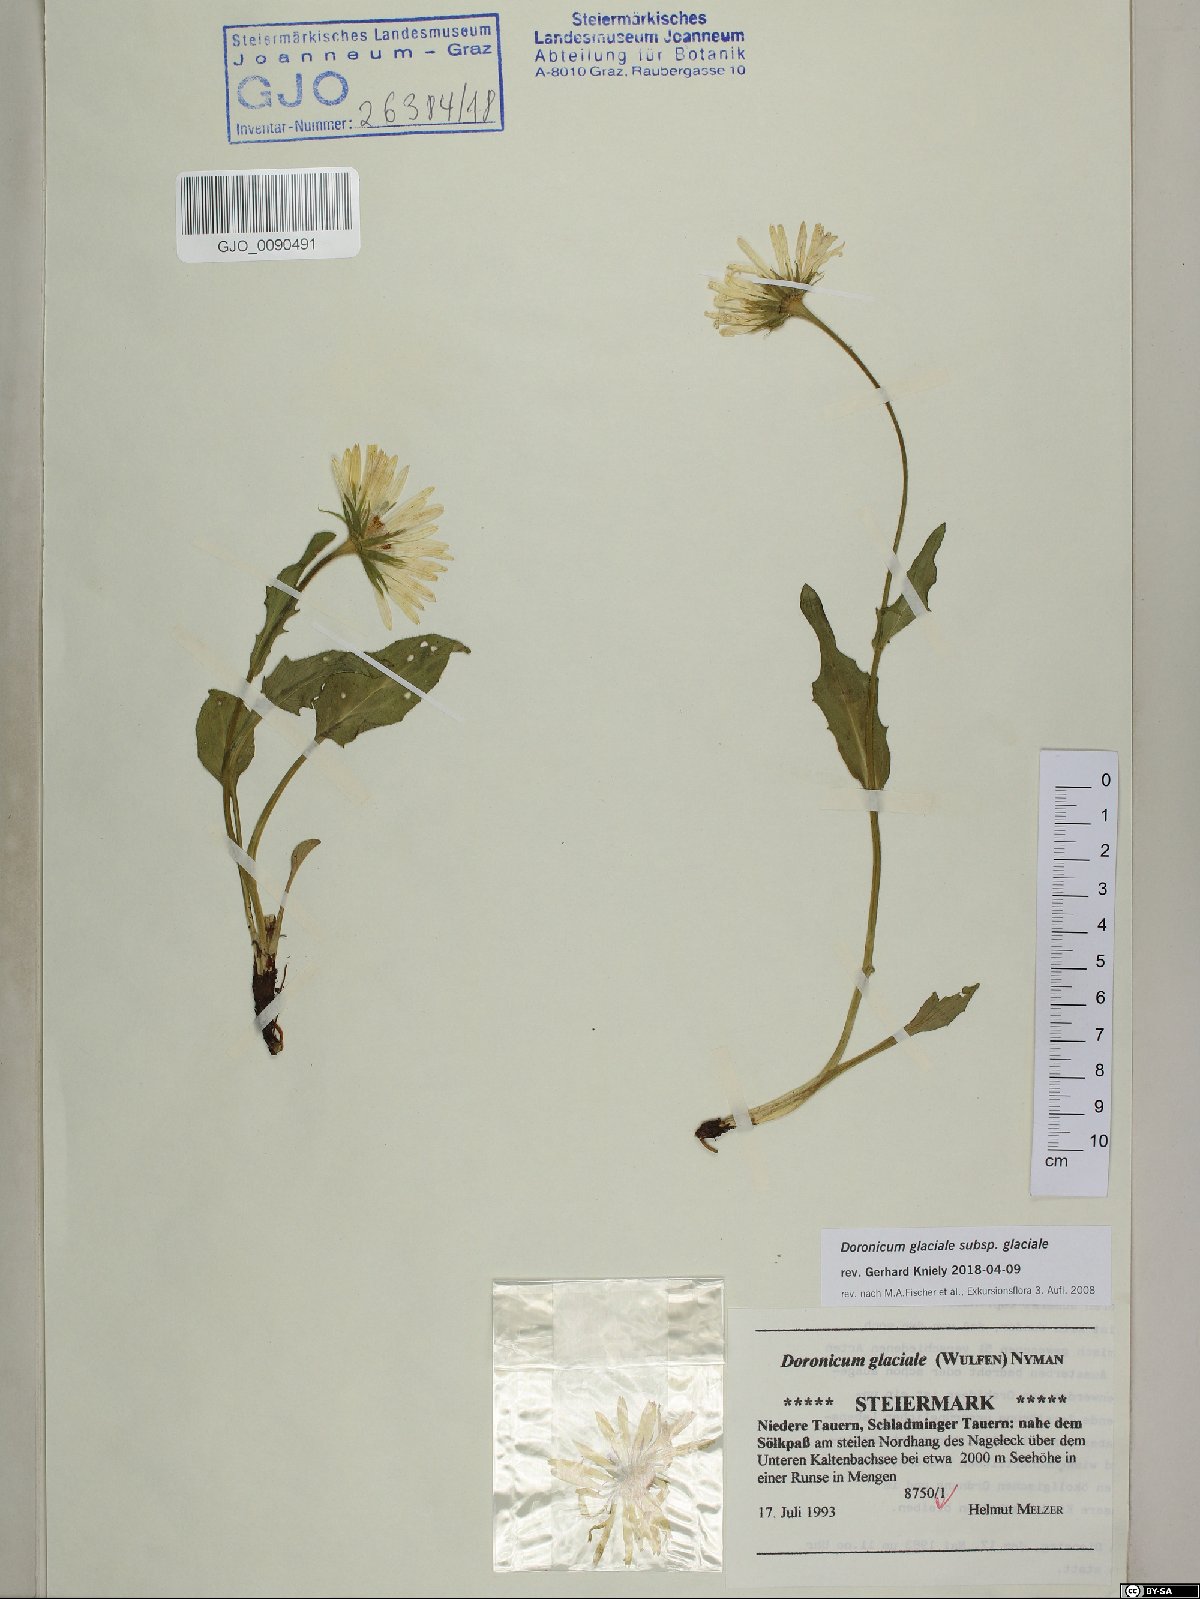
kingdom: Plantae
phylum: Tracheophyta
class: Magnoliopsida
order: Asterales
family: Asteraceae
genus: Doronicum
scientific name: Doronicum glaciale
